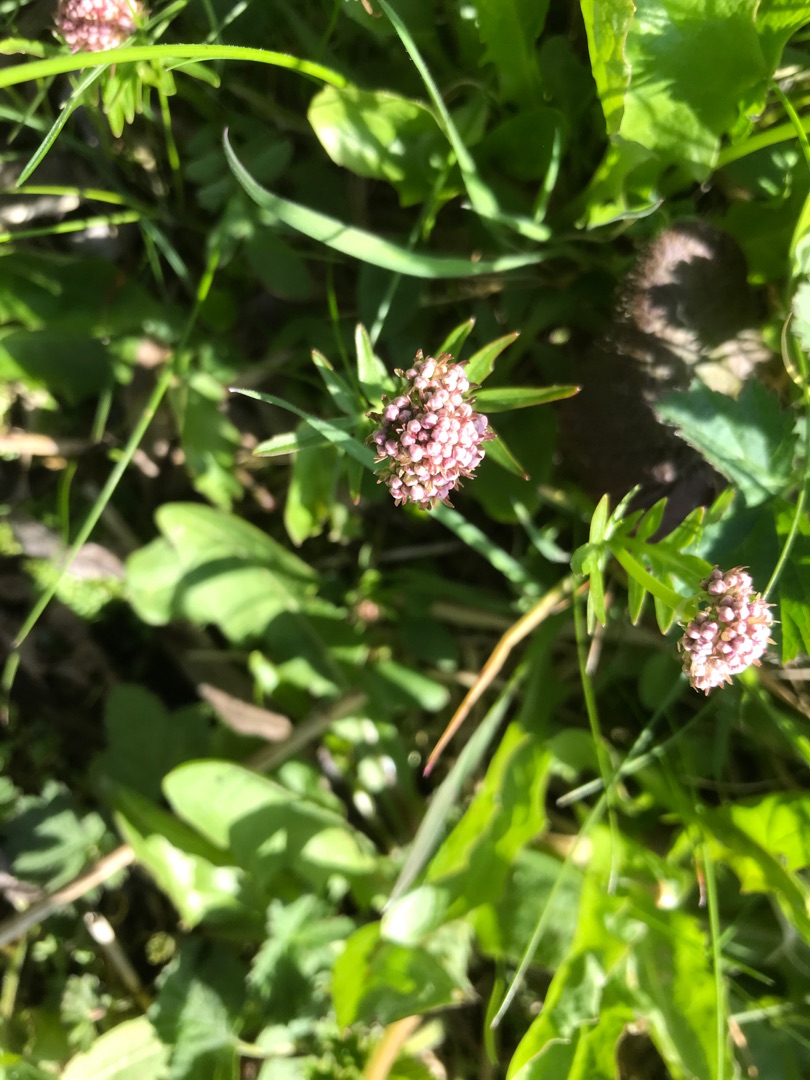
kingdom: Plantae
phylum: Tracheophyta
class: Magnoliopsida
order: Dipsacales
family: Caprifoliaceae
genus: Valeriana
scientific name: Valeriana dioica
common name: Tvebo baldrian
